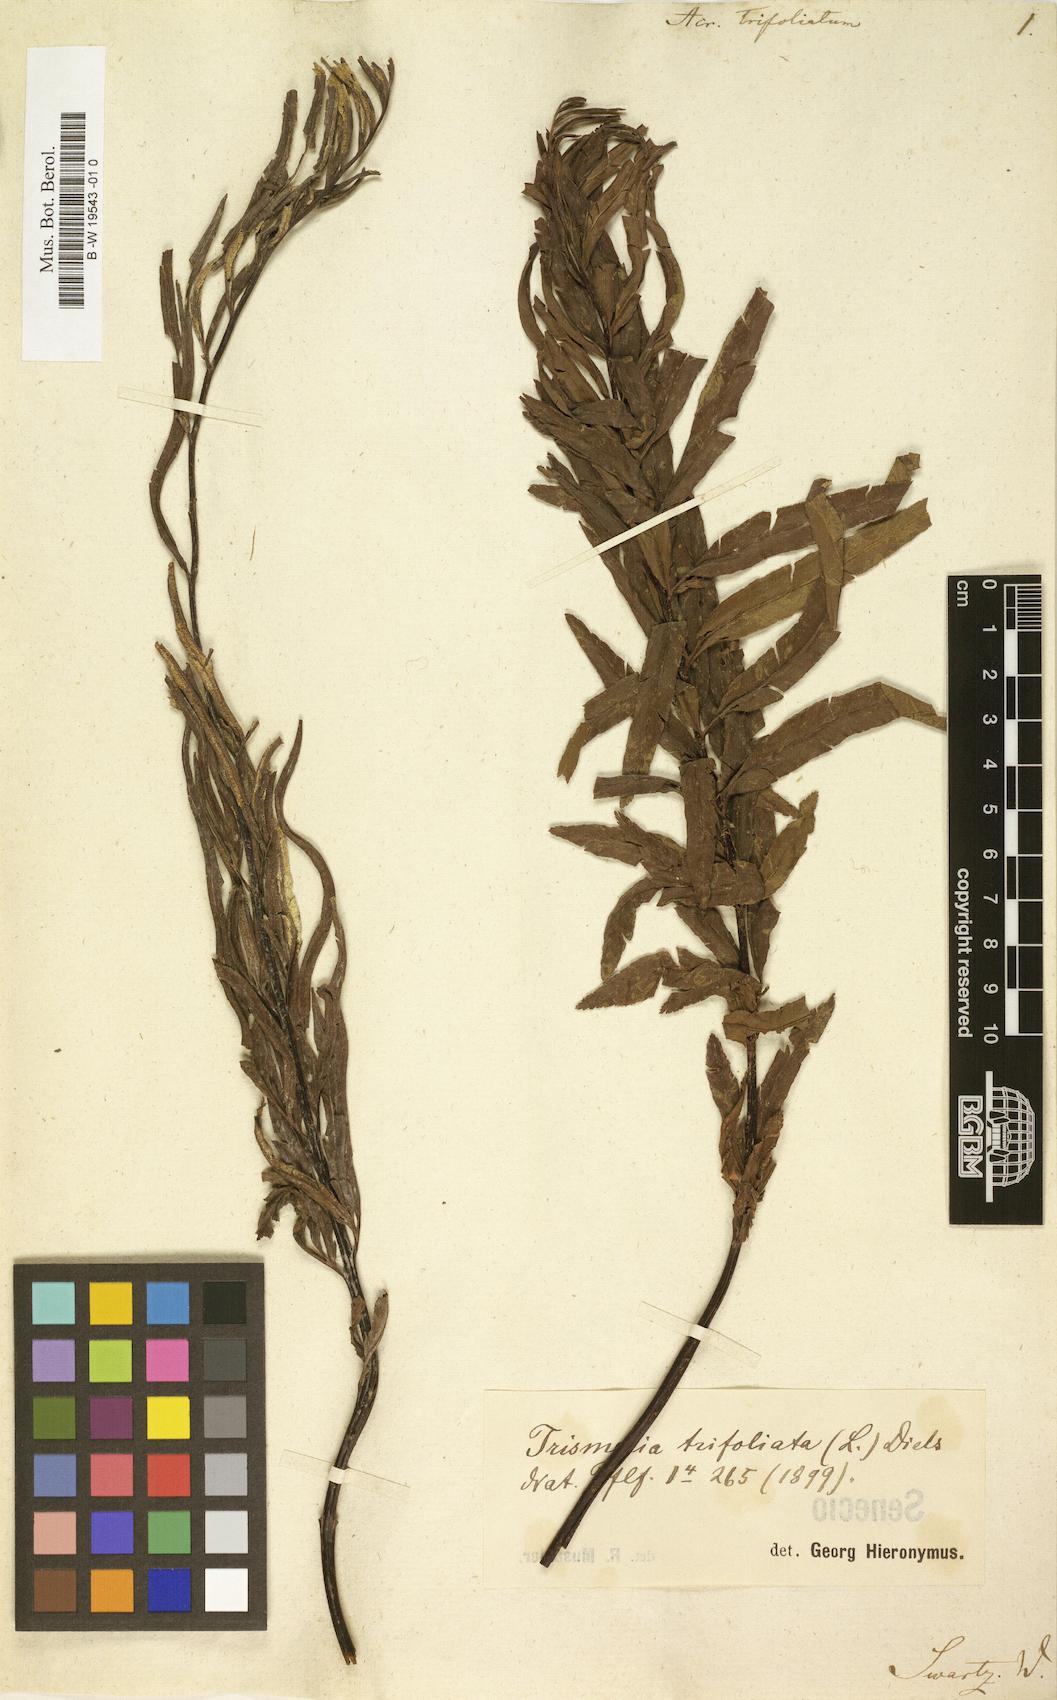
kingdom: Plantae
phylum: Tracheophyta
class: Polypodiopsida
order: Polypodiales
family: Pteridaceae
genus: Pityrogramma
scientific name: Pityrogramma trifoliata
